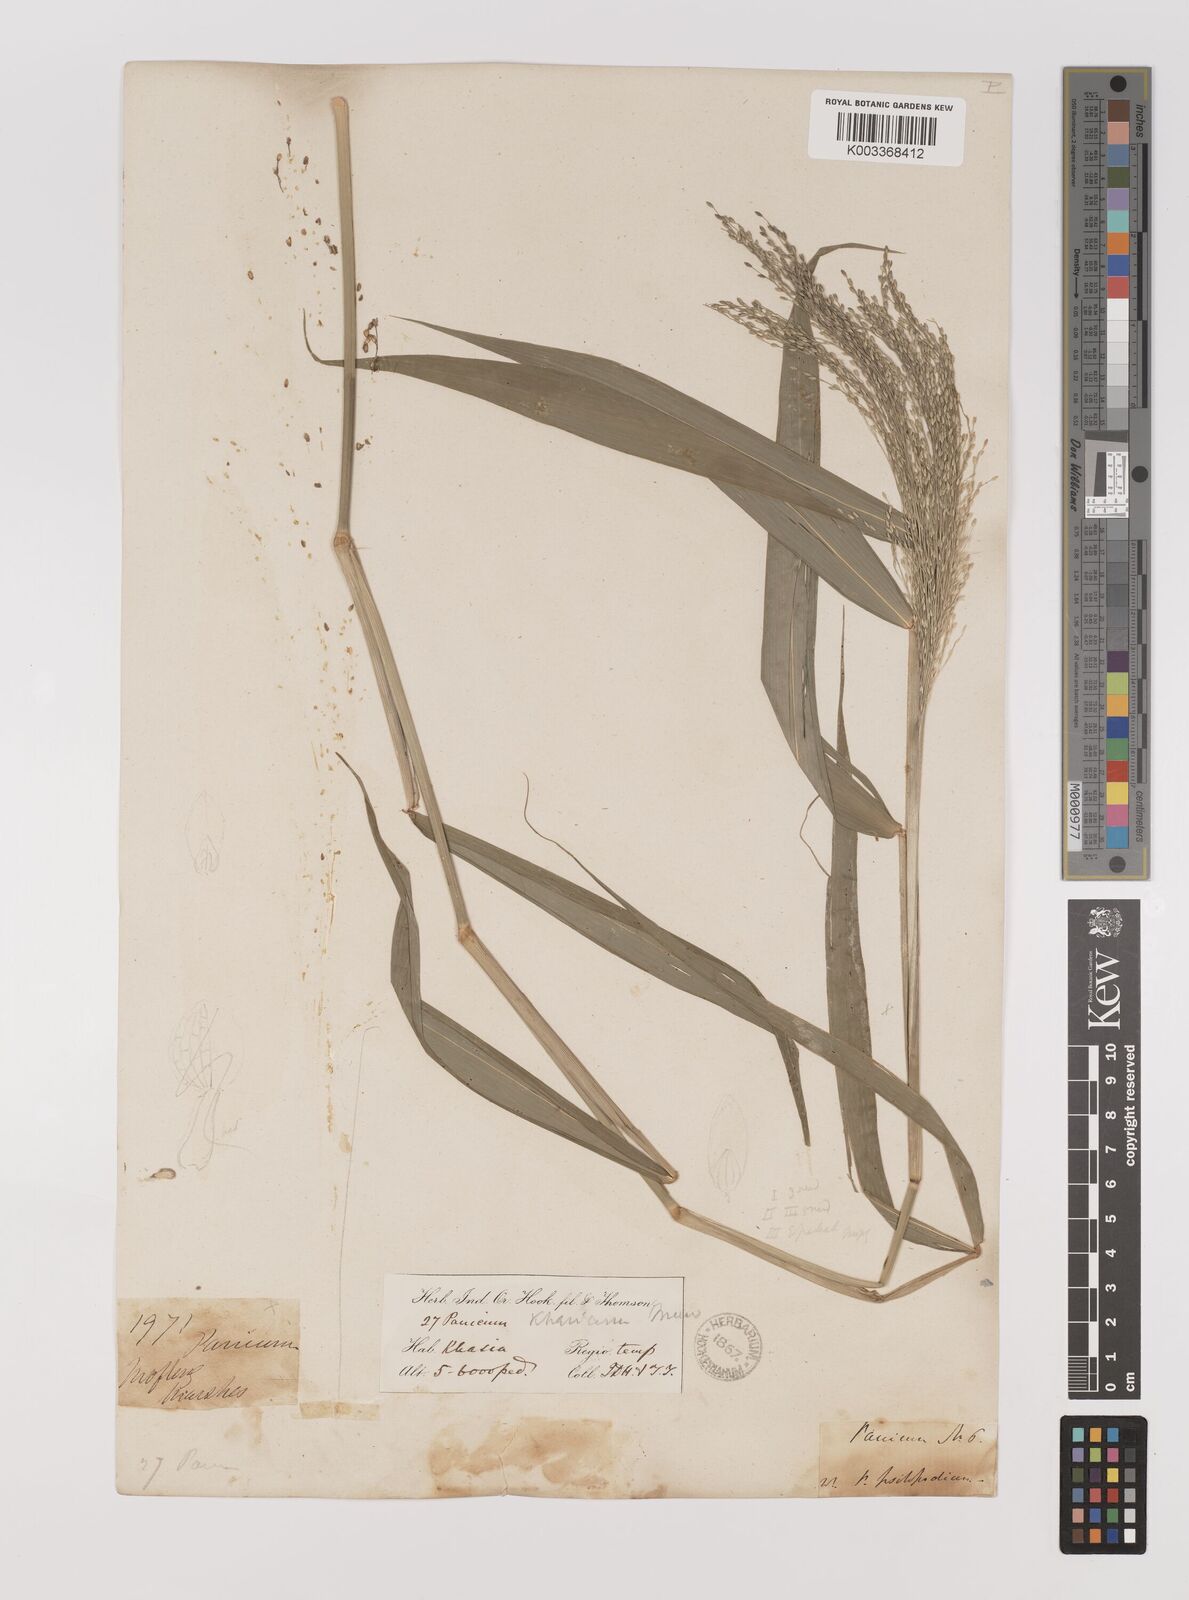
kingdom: Plantae
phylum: Tracheophyta
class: Liliopsida
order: Poales
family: Poaceae
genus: Panicum
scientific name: Panicum khasianum
